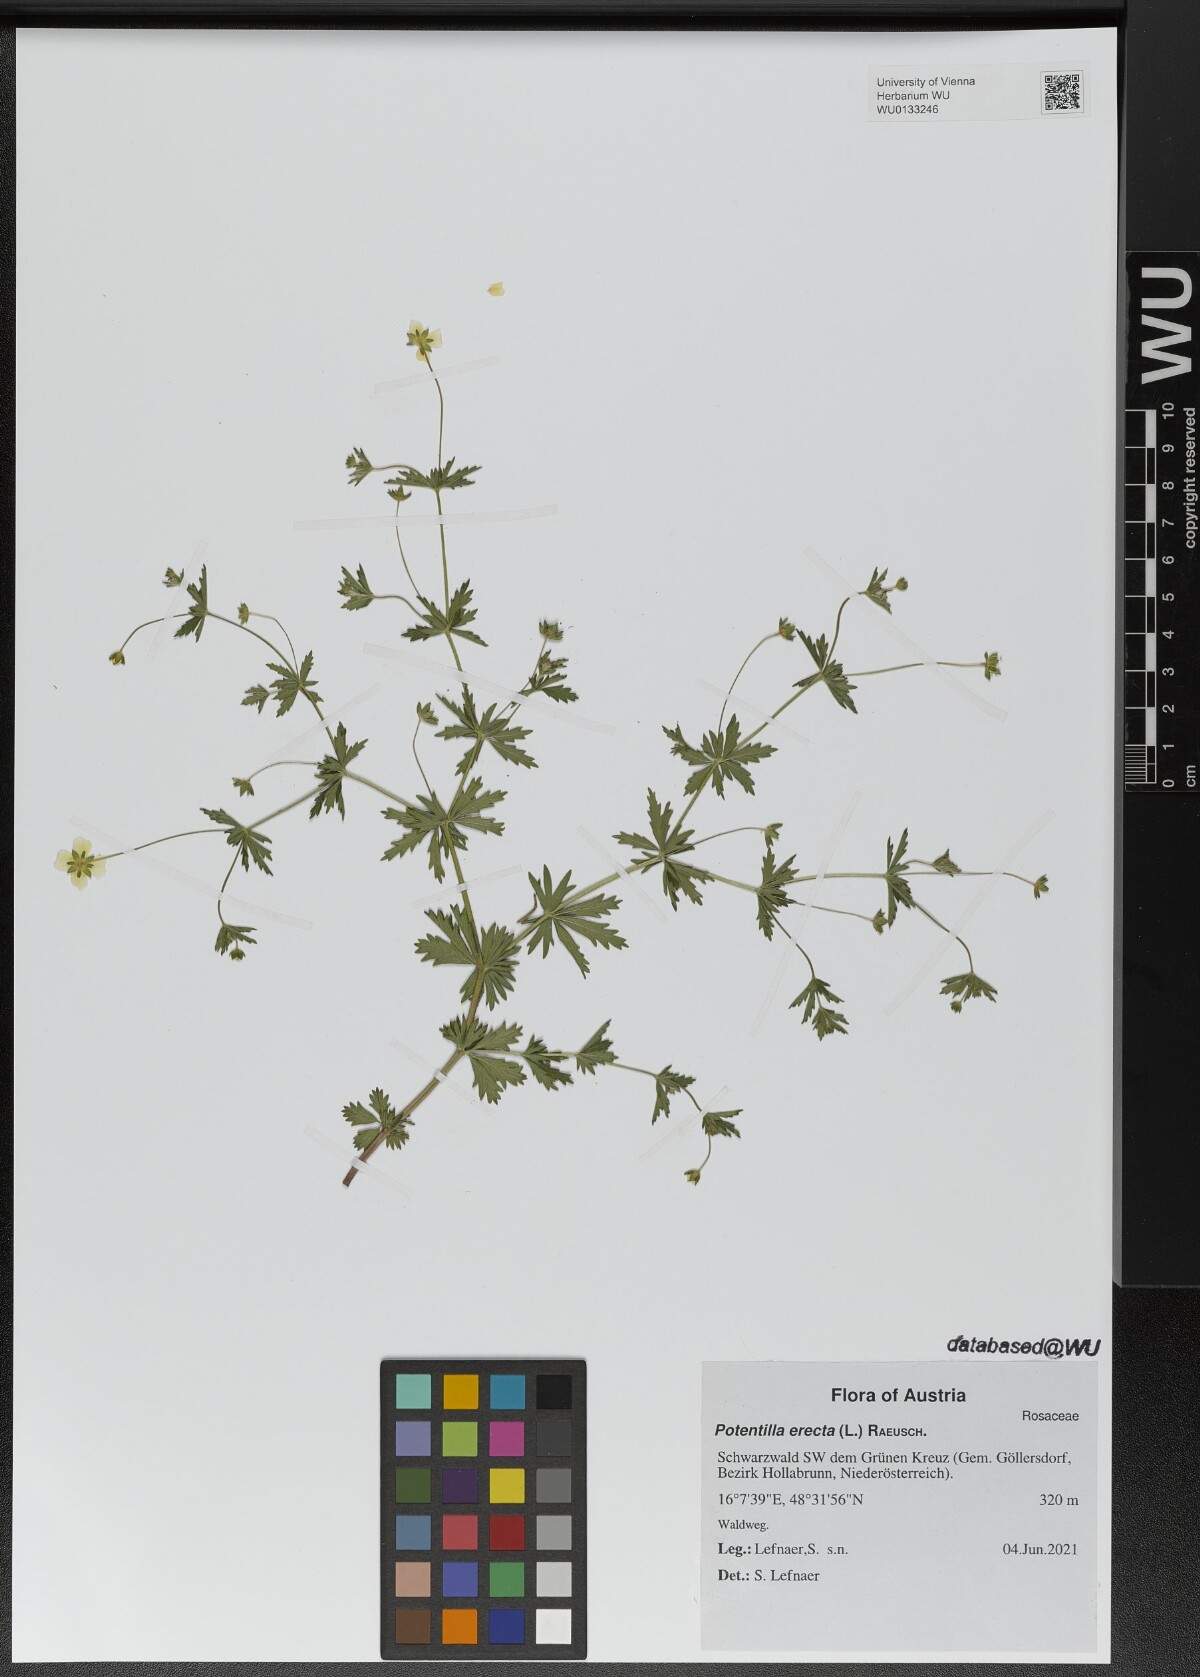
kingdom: Plantae
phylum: Tracheophyta
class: Magnoliopsida
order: Rosales
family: Rosaceae
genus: Potentilla
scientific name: Potentilla erecta
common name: Tormentil
